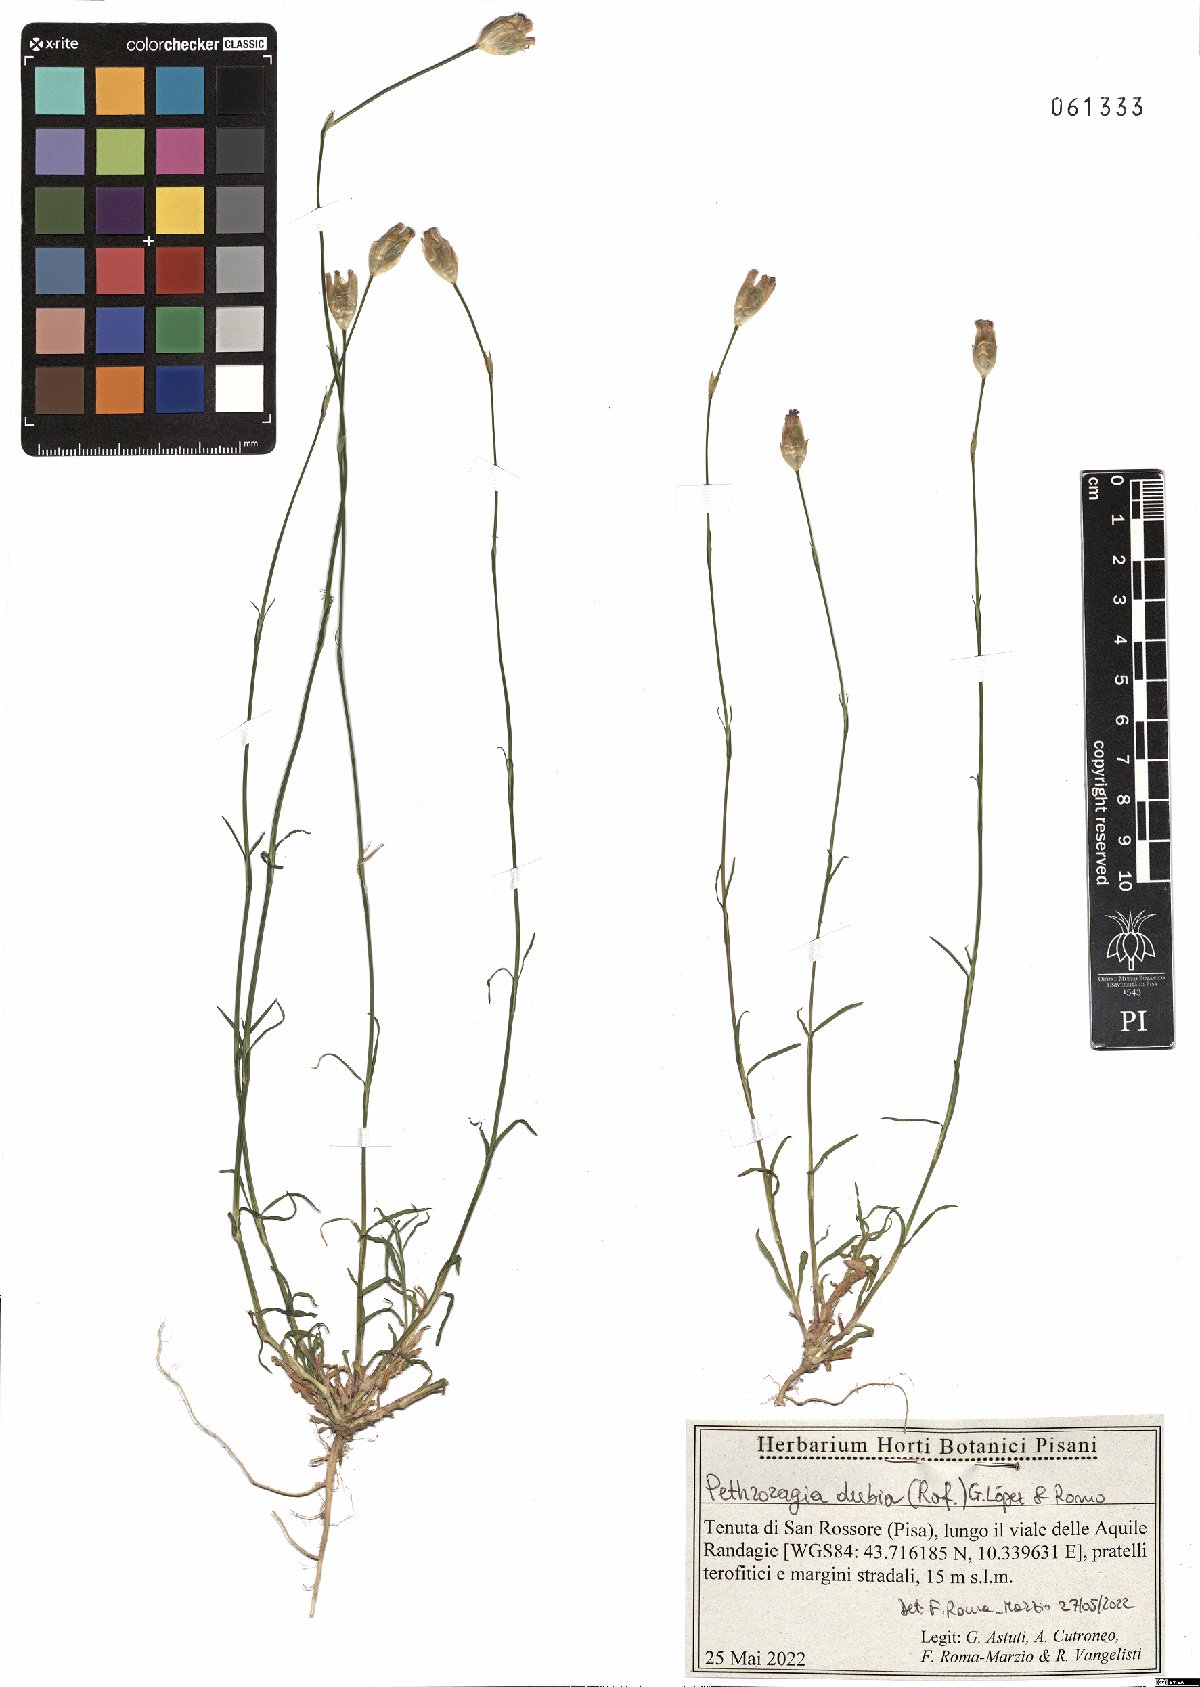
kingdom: Plantae
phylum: Tracheophyta
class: Magnoliopsida
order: Caryophyllales
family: Caryophyllaceae
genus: Petrorhagia
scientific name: Petrorhagia dubia
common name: Hairypink
